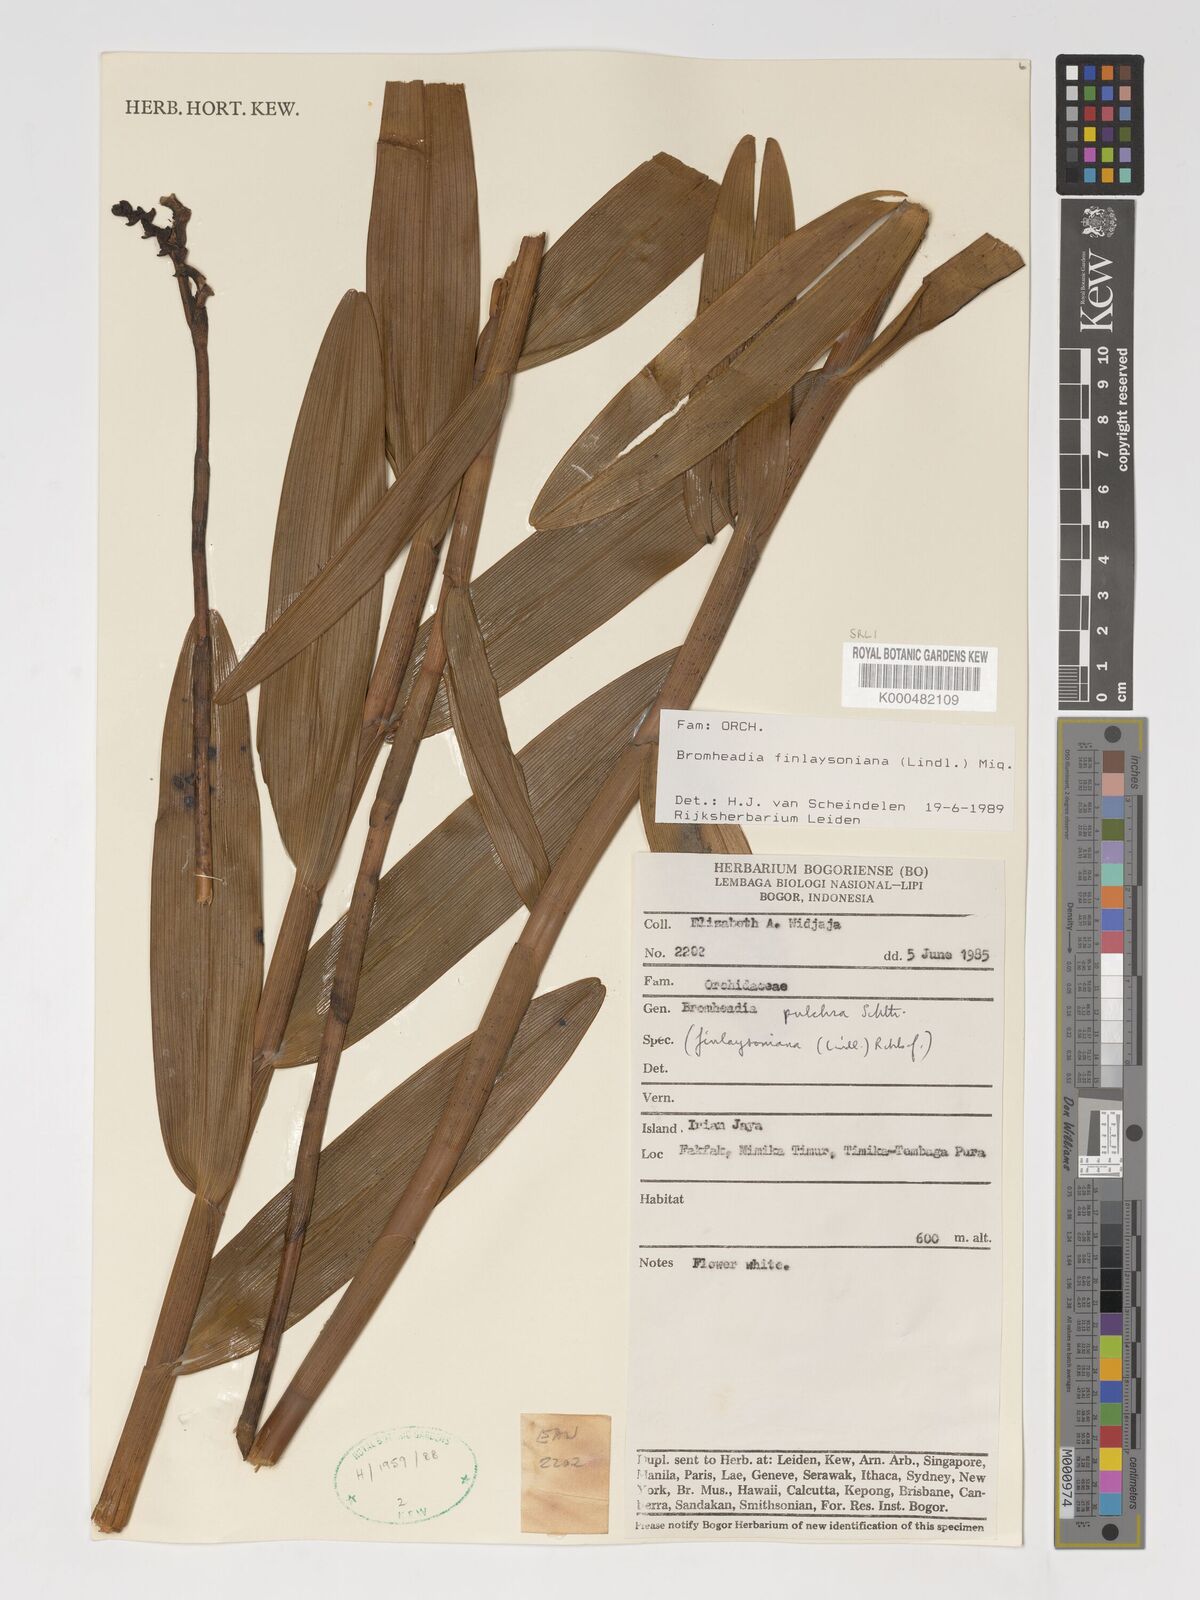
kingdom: Plantae
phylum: Tracheophyta
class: Liliopsida
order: Asparagales
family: Orchidaceae
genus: Bromheadia
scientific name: Bromheadia finlaysoniana
